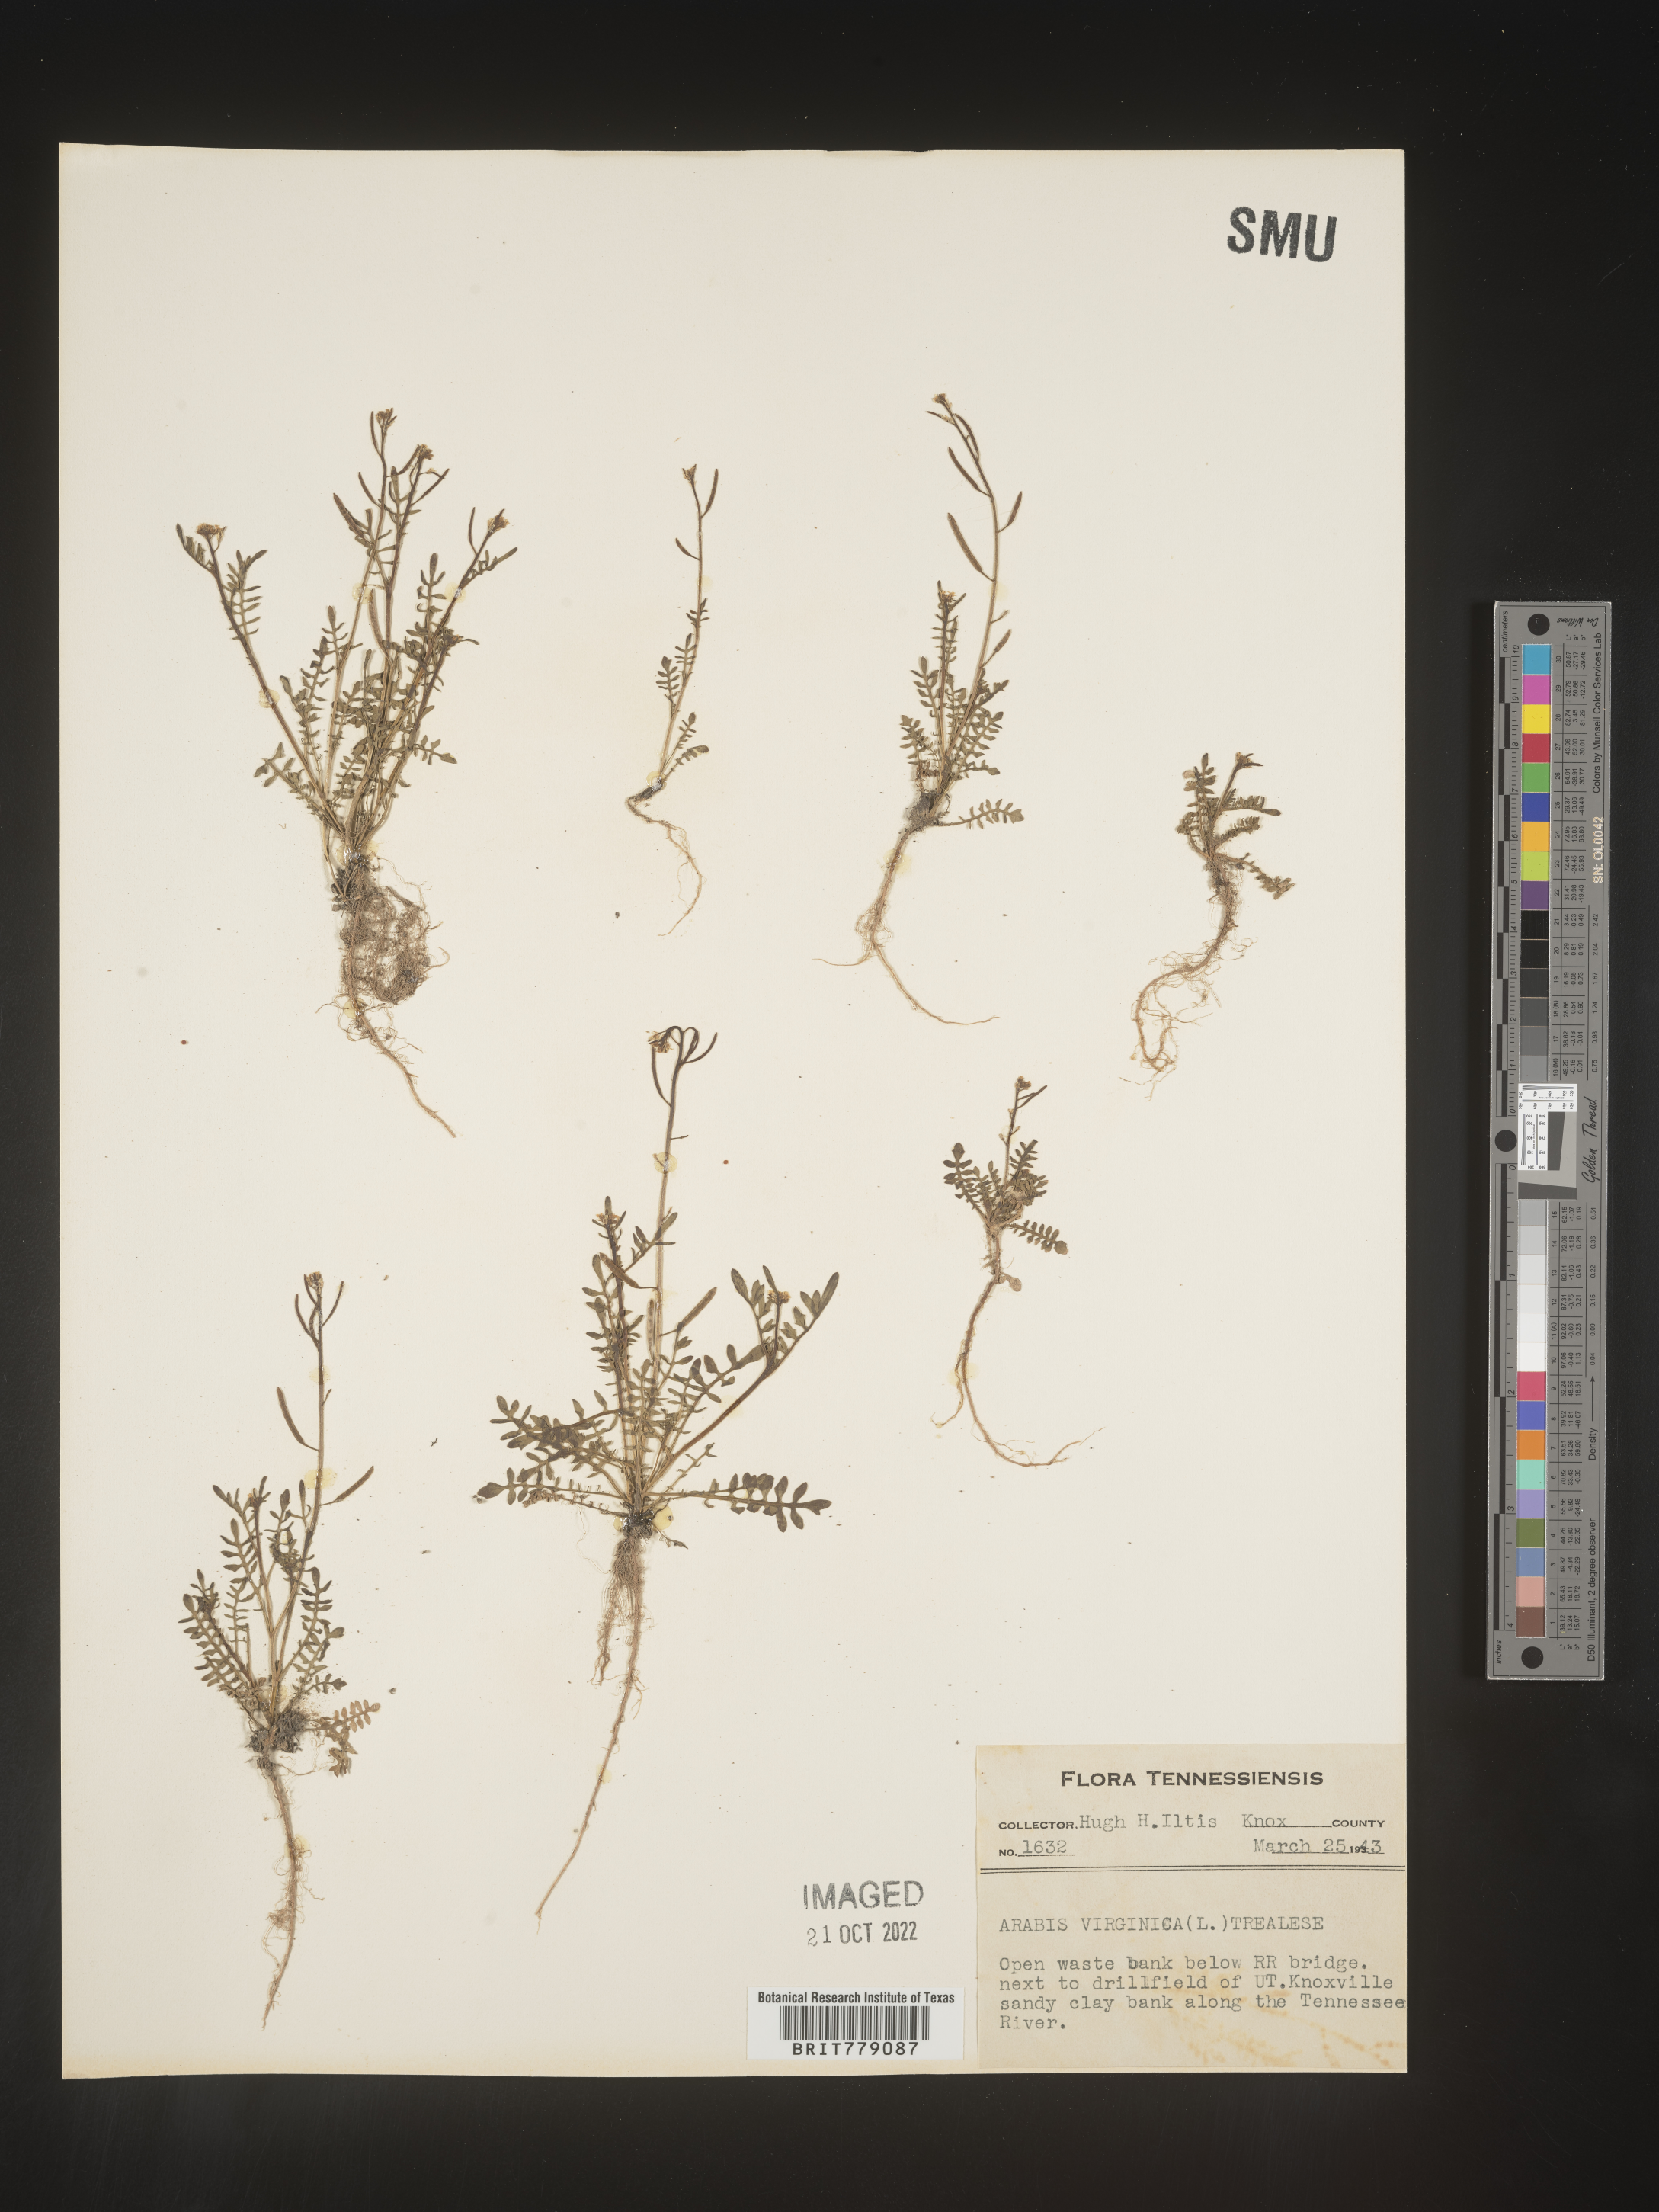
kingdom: Plantae
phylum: Tracheophyta
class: Magnoliopsida
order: Brassicales
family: Brassicaceae
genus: Sibara
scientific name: Sibara
